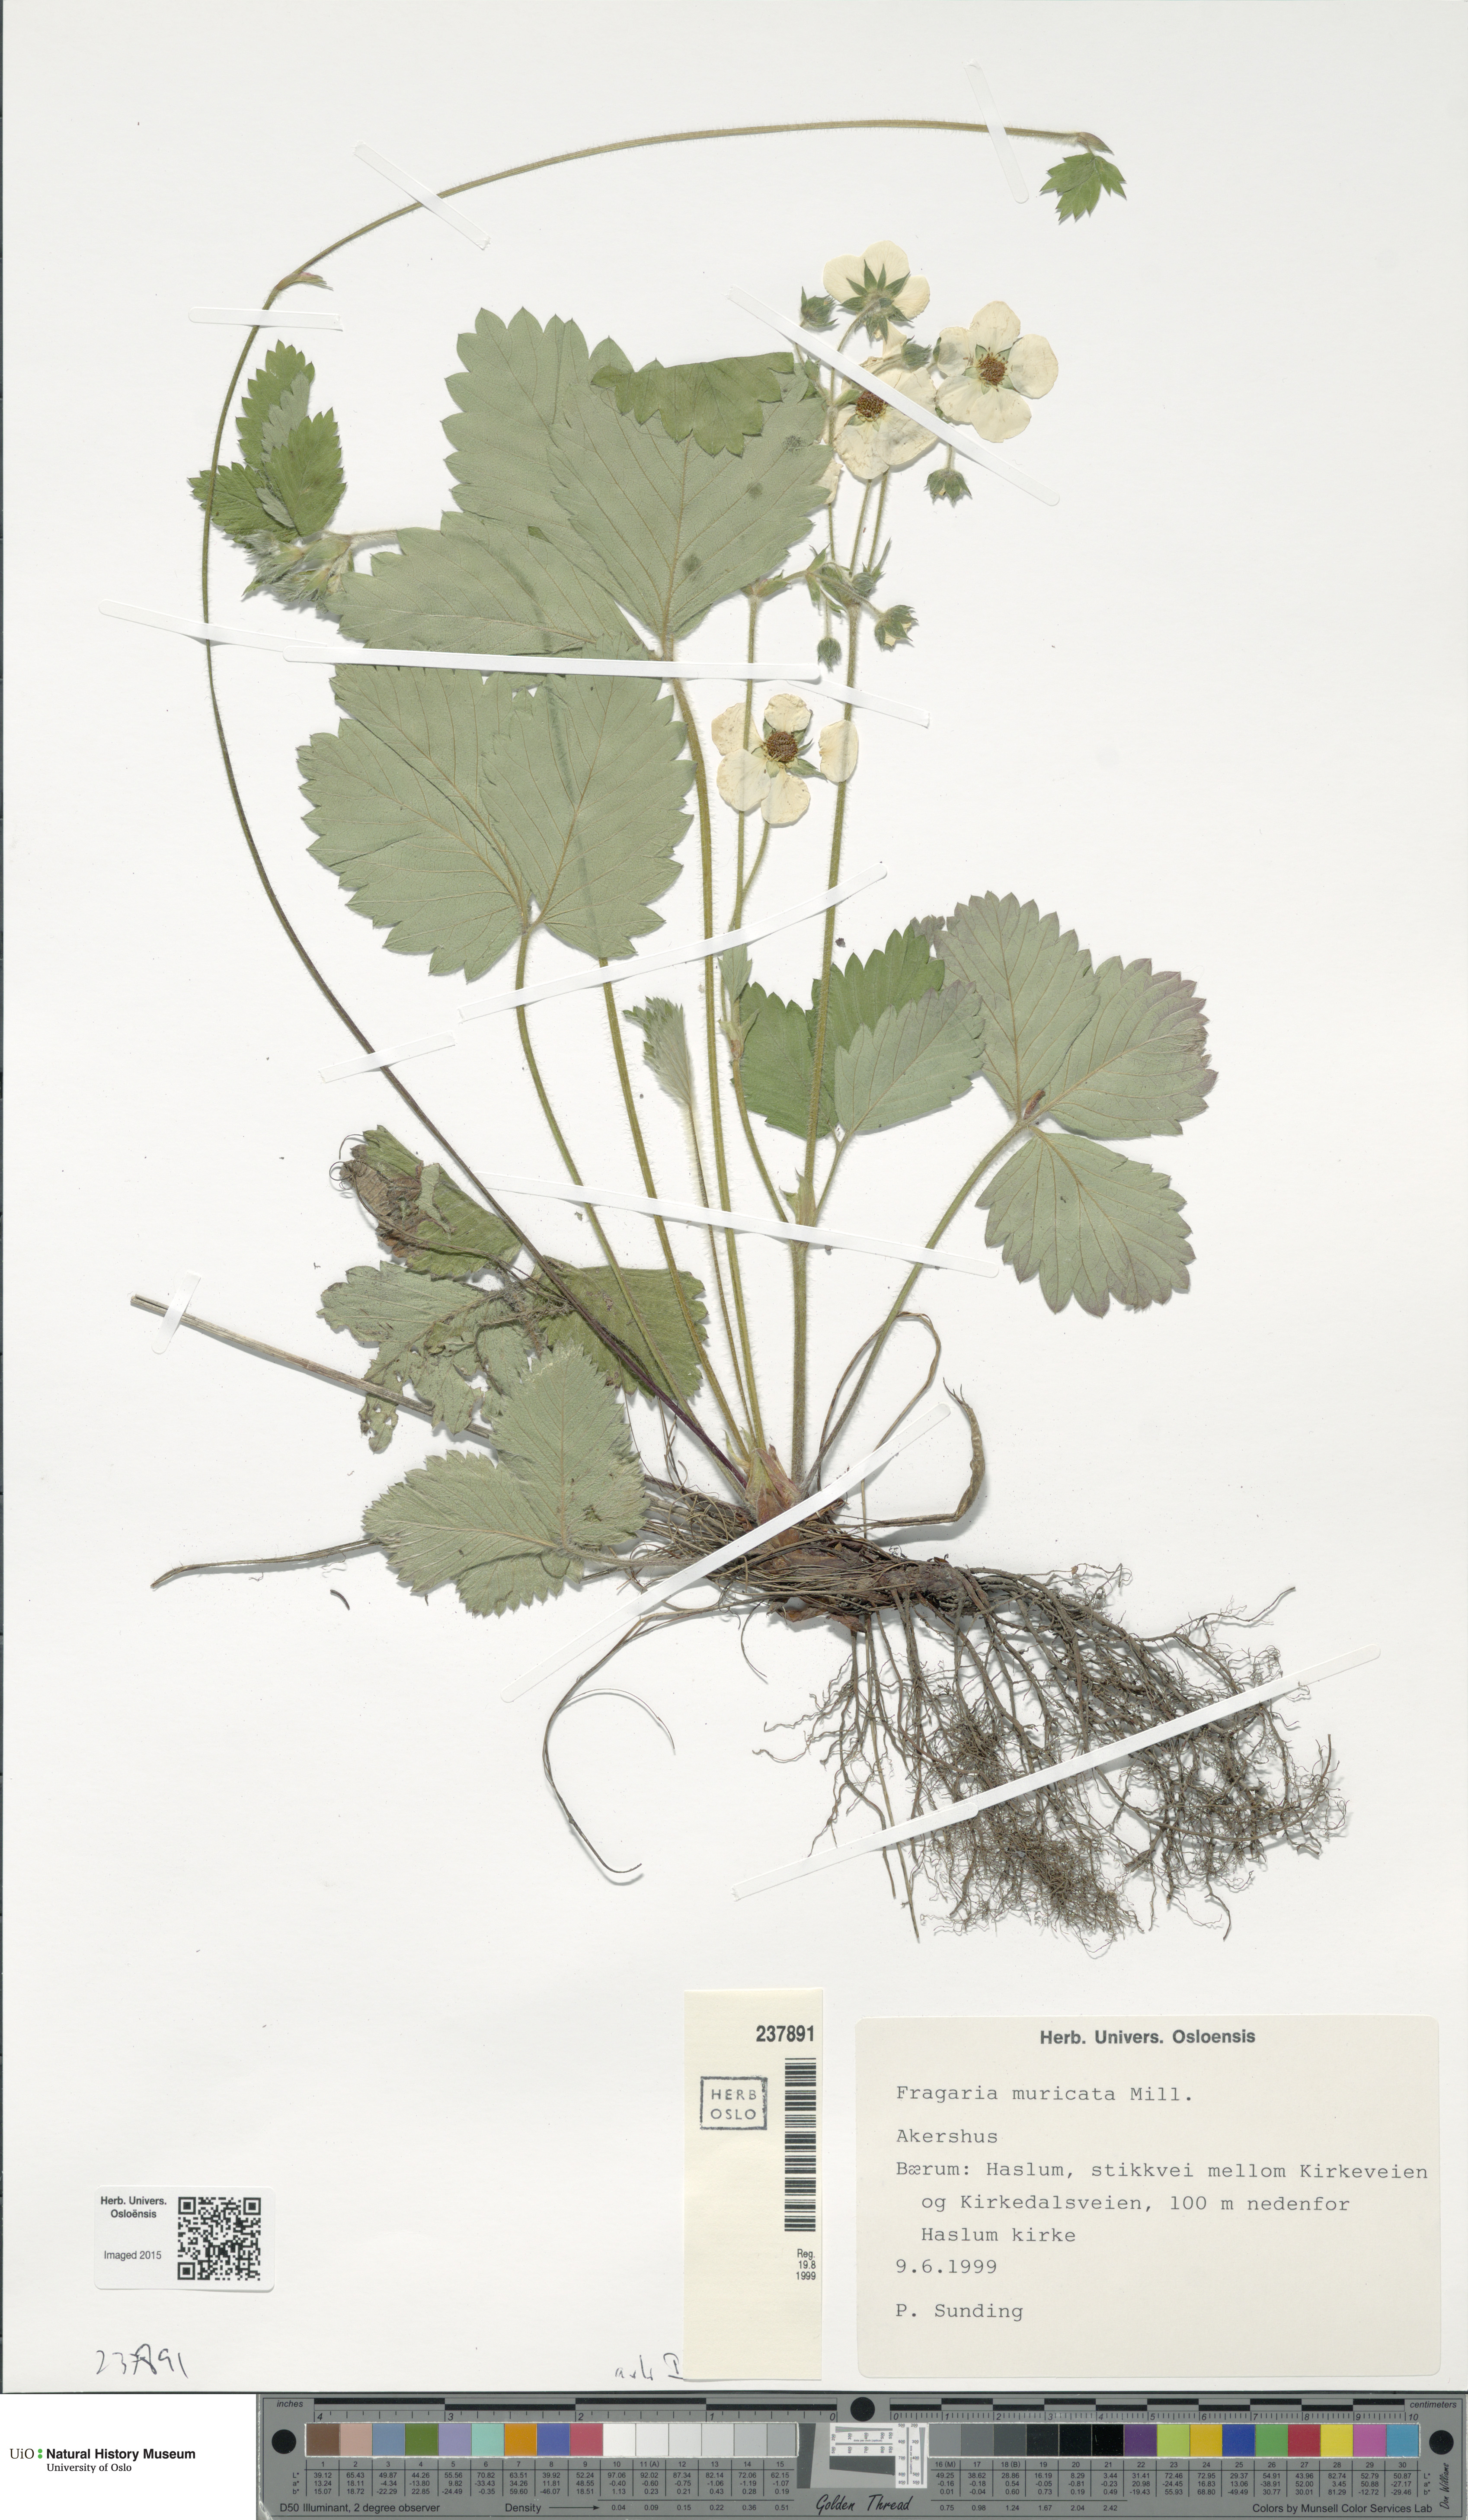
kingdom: Plantae
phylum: Tracheophyta
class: Magnoliopsida
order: Rosales
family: Rosaceae
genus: Fragaria
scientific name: Fragaria moschata
